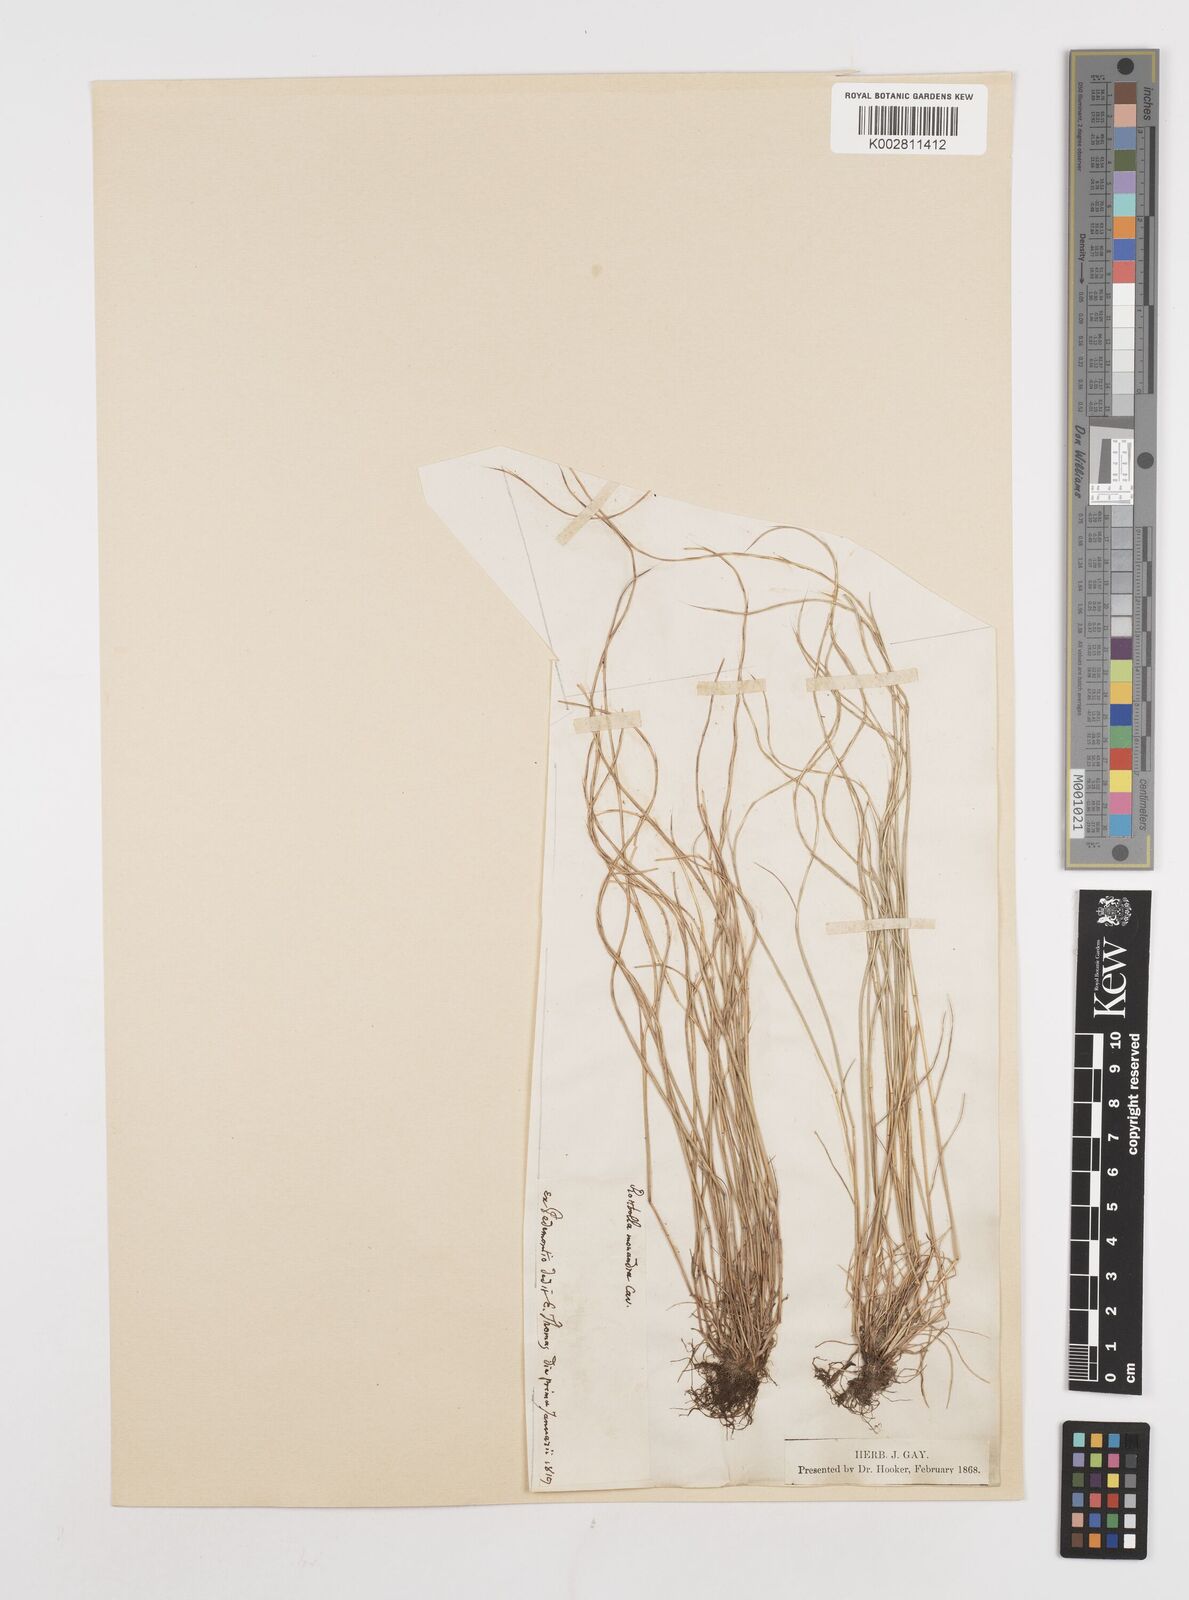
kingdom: Plantae
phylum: Tracheophyta
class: Liliopsida
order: Poales
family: Poaceae
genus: Festuca
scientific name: Festuca incurva
